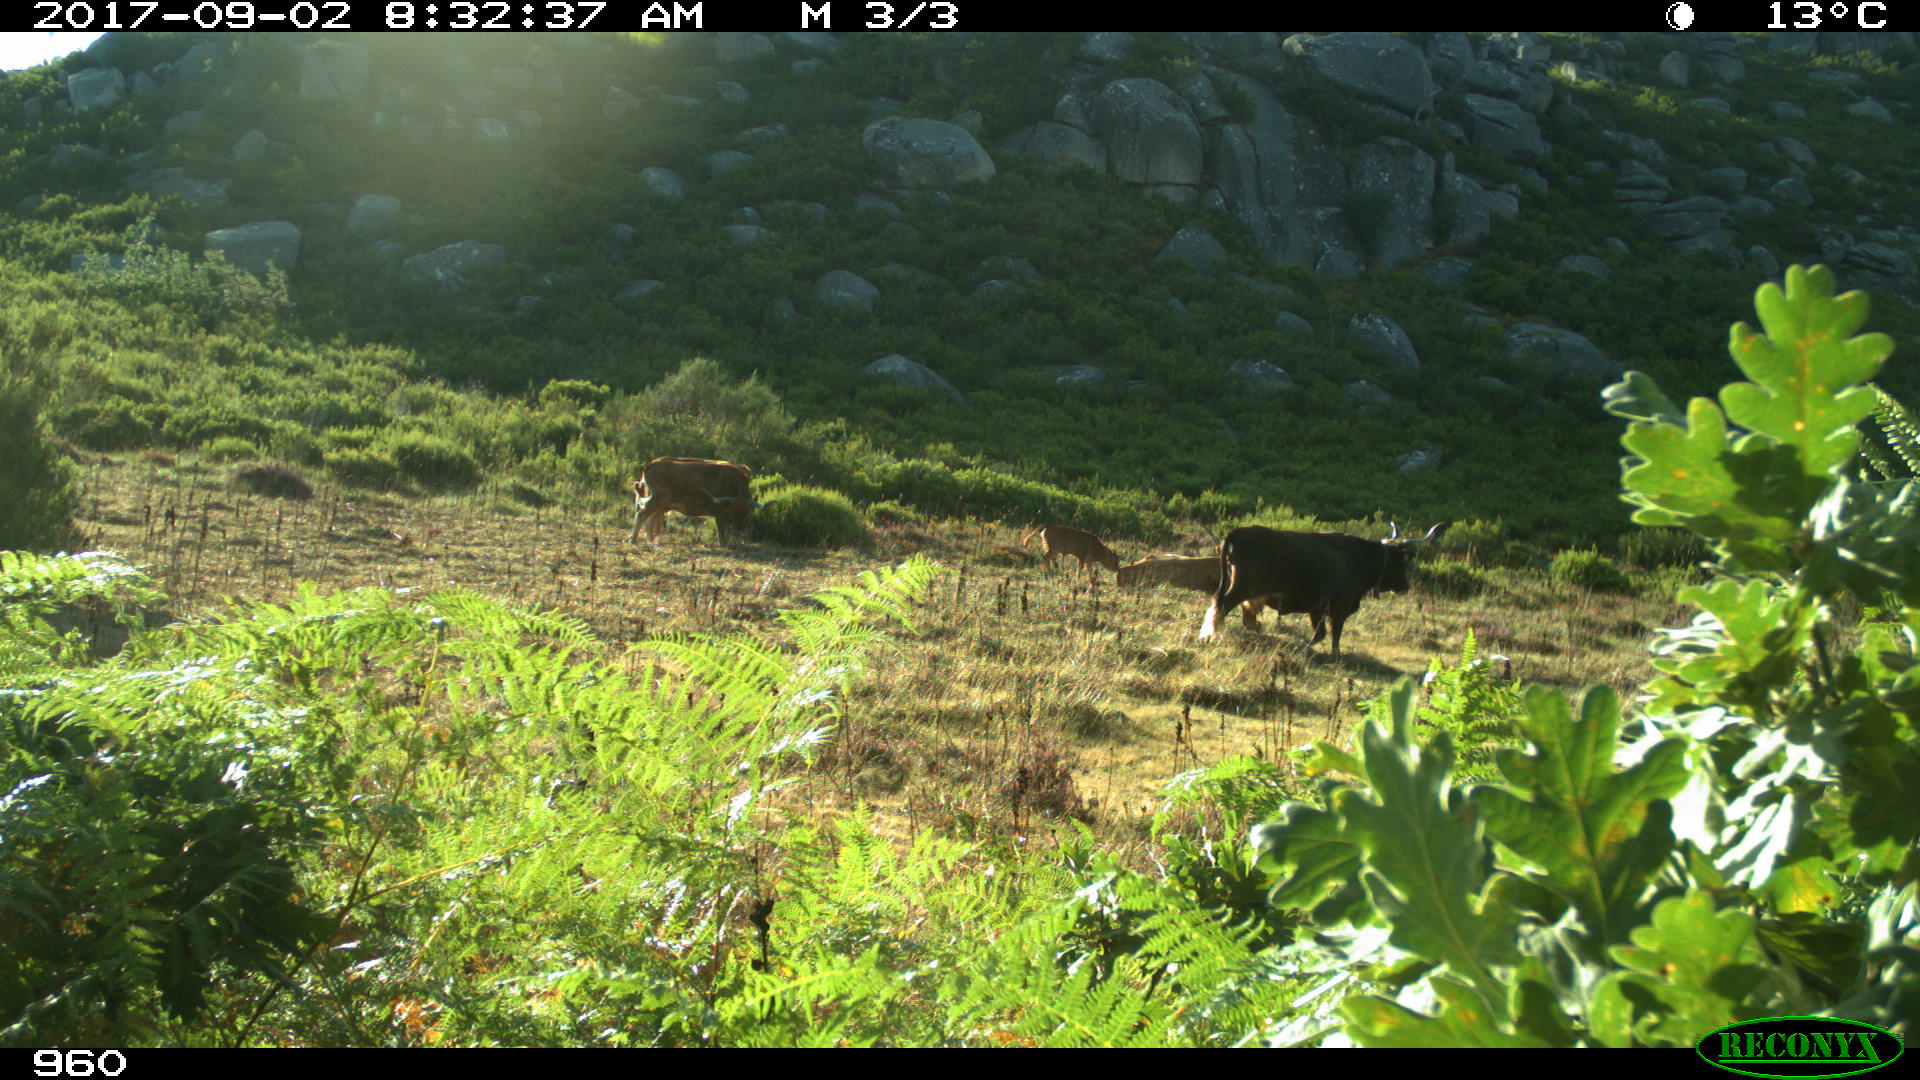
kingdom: Animalia
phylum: Chordata
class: Mammalia
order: Artiodactyla
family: Bovidae
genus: Bos
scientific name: Bos taurus
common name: Domesticated cattle
